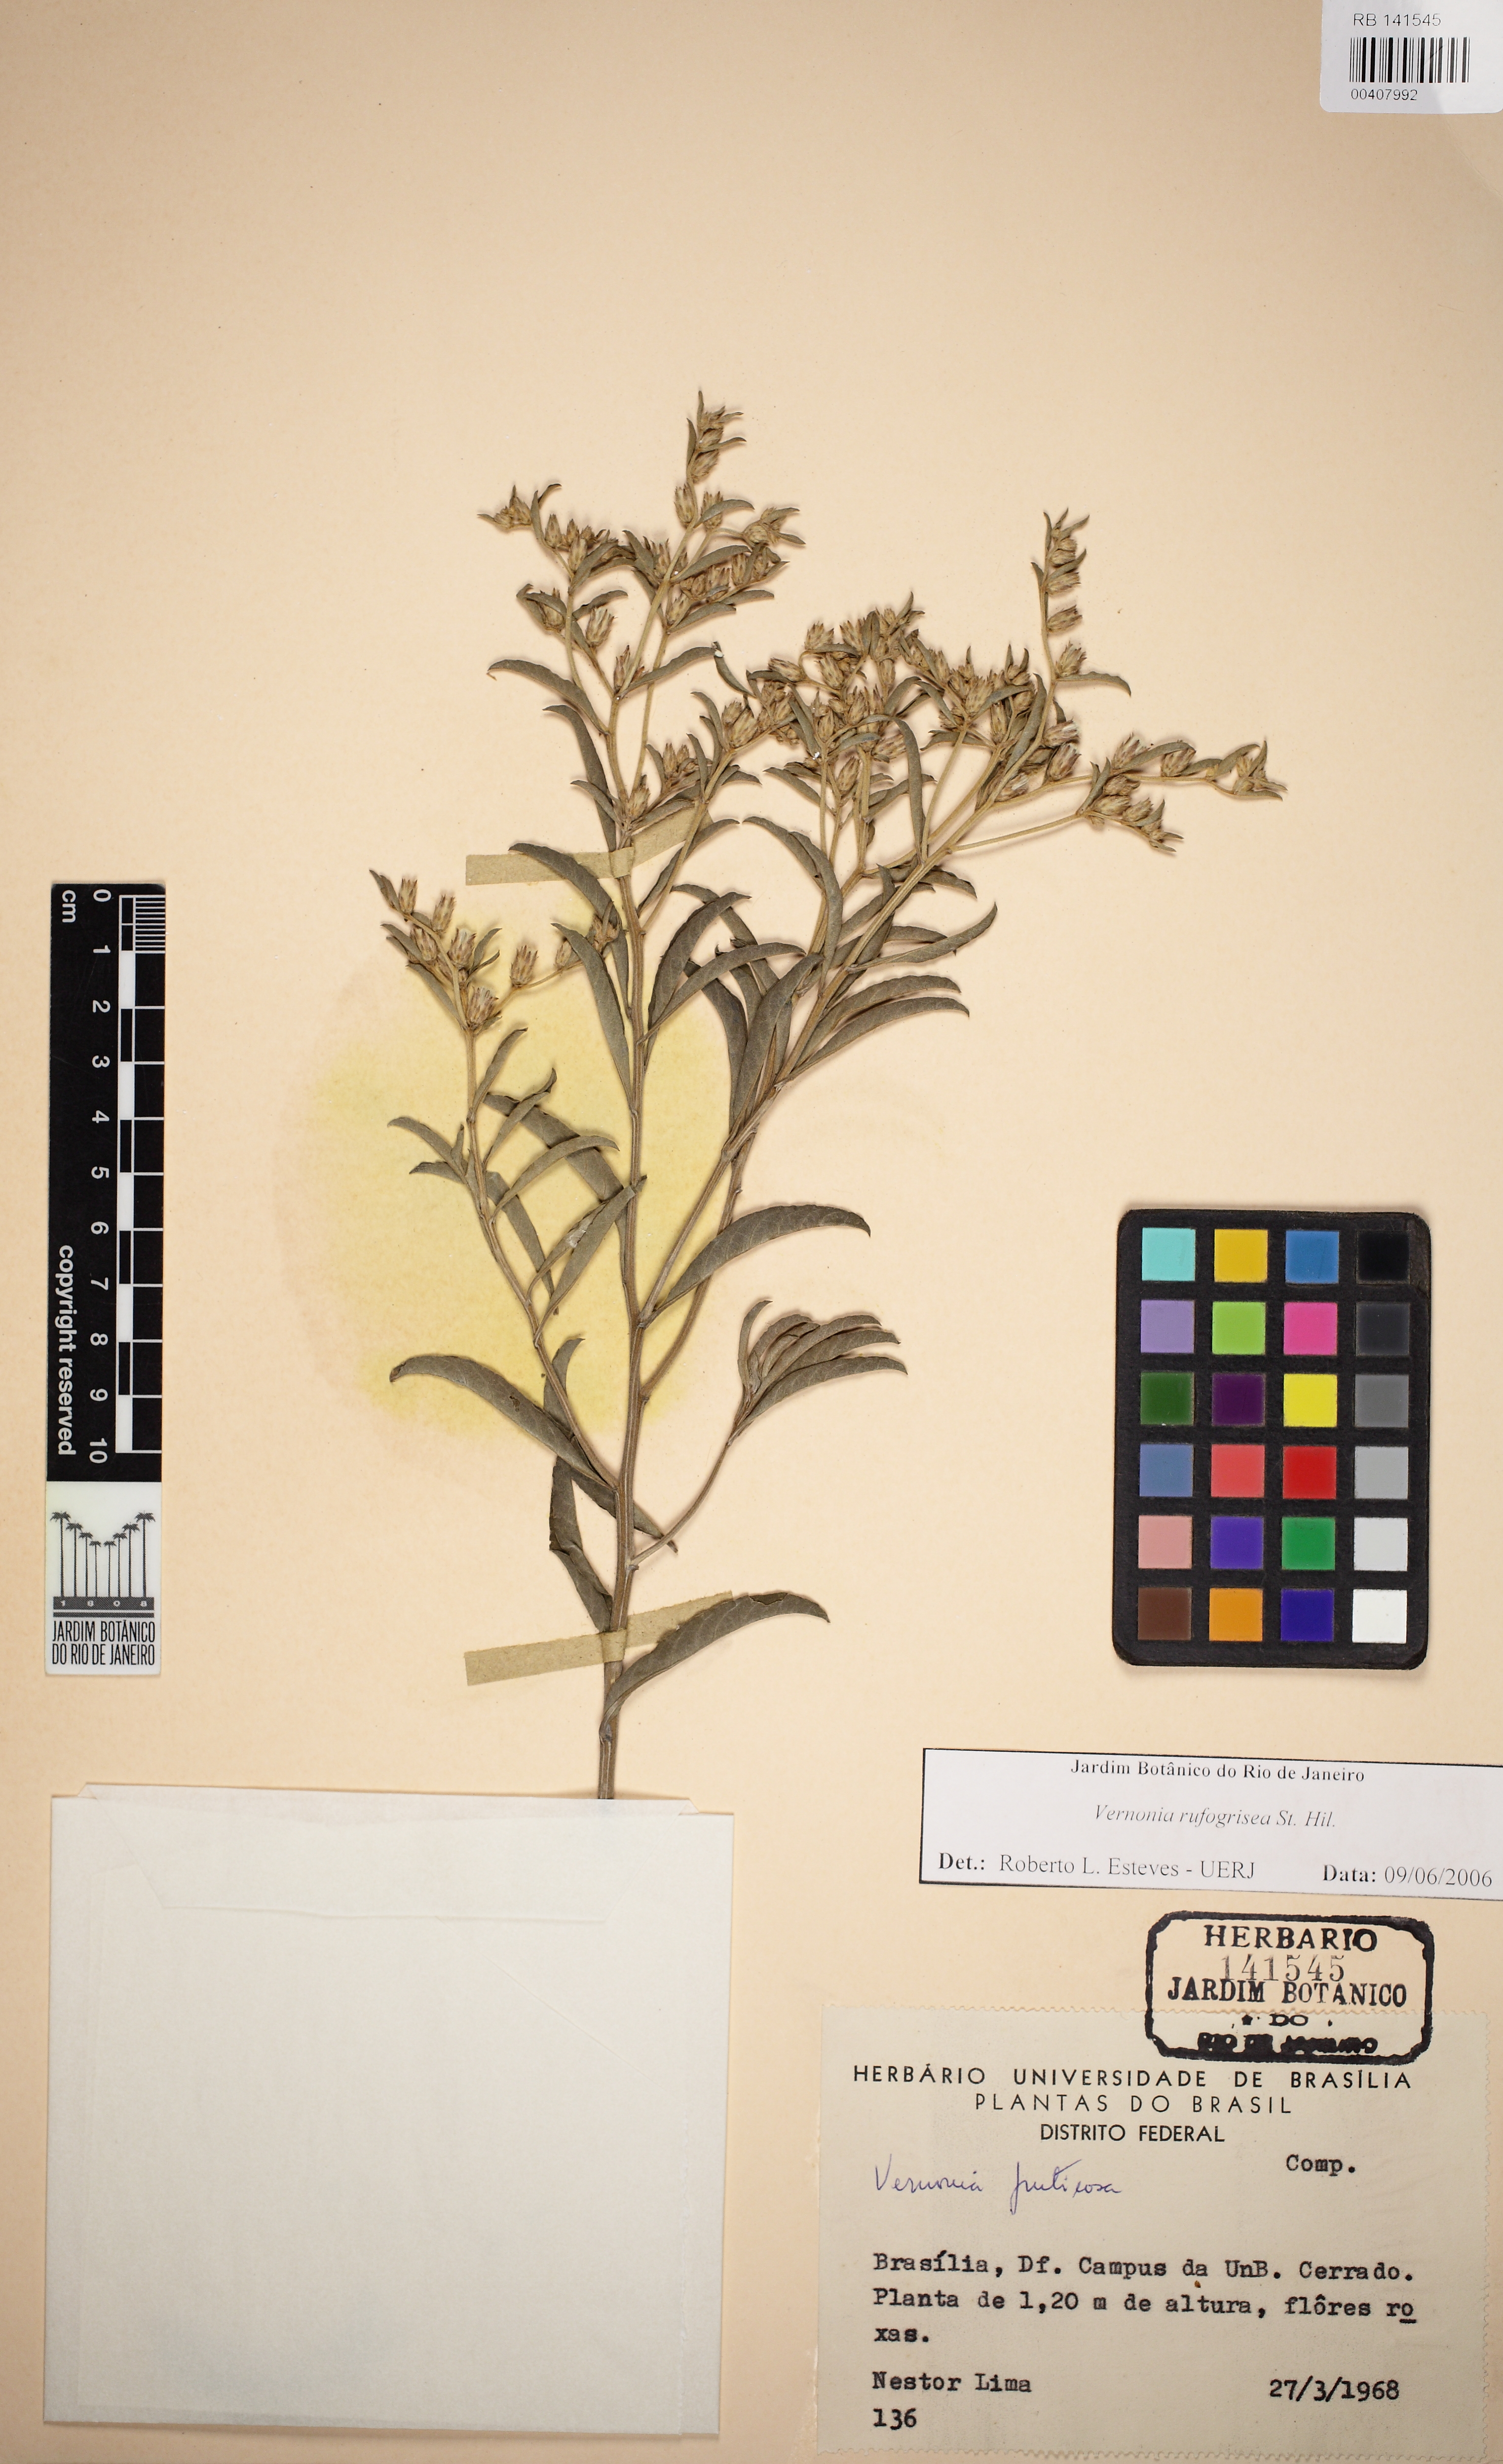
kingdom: Plantae
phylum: Tracheophyta
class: Magnoliopsida
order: Asterales
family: Asteraceae
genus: Lepidaploa
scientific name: Lepidaploa rufogrisea
